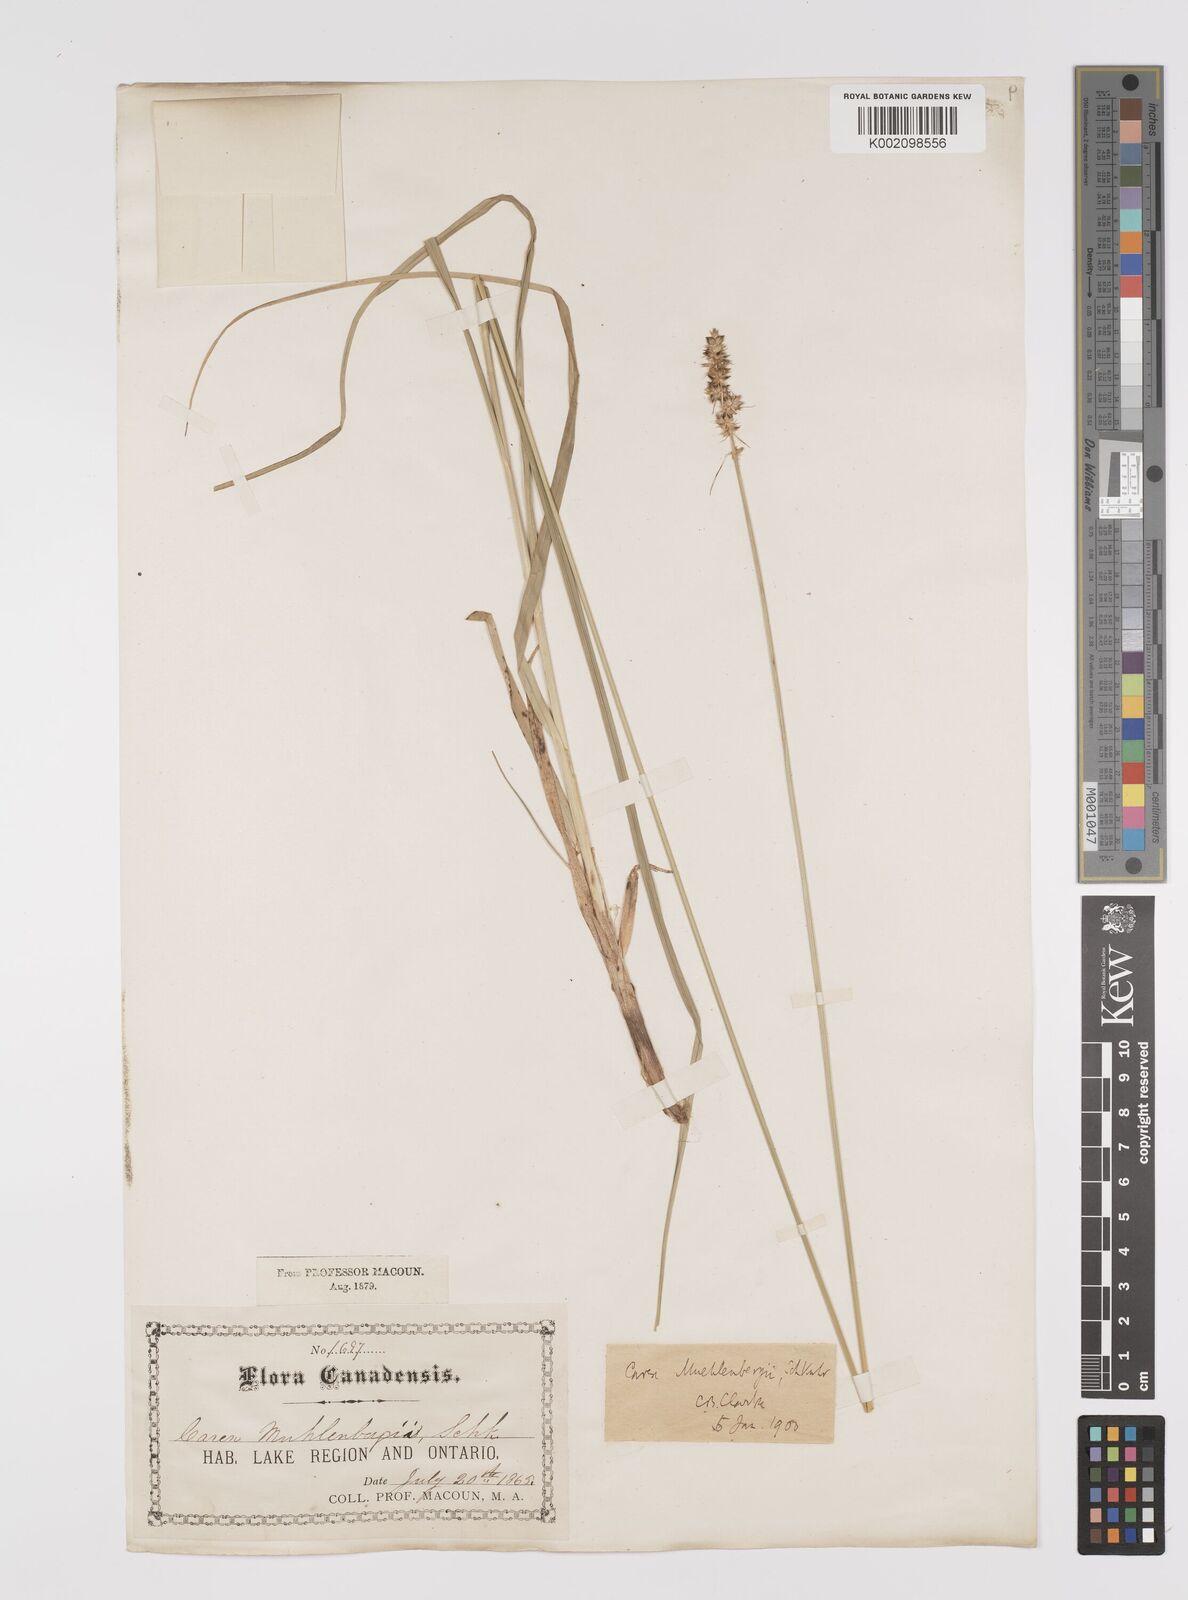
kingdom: Plantae
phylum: Tracheophyta
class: Liliopsida
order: Poales
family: Cyperaceae
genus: Carex
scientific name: Carex vulpinoidea
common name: American fox-sedge
